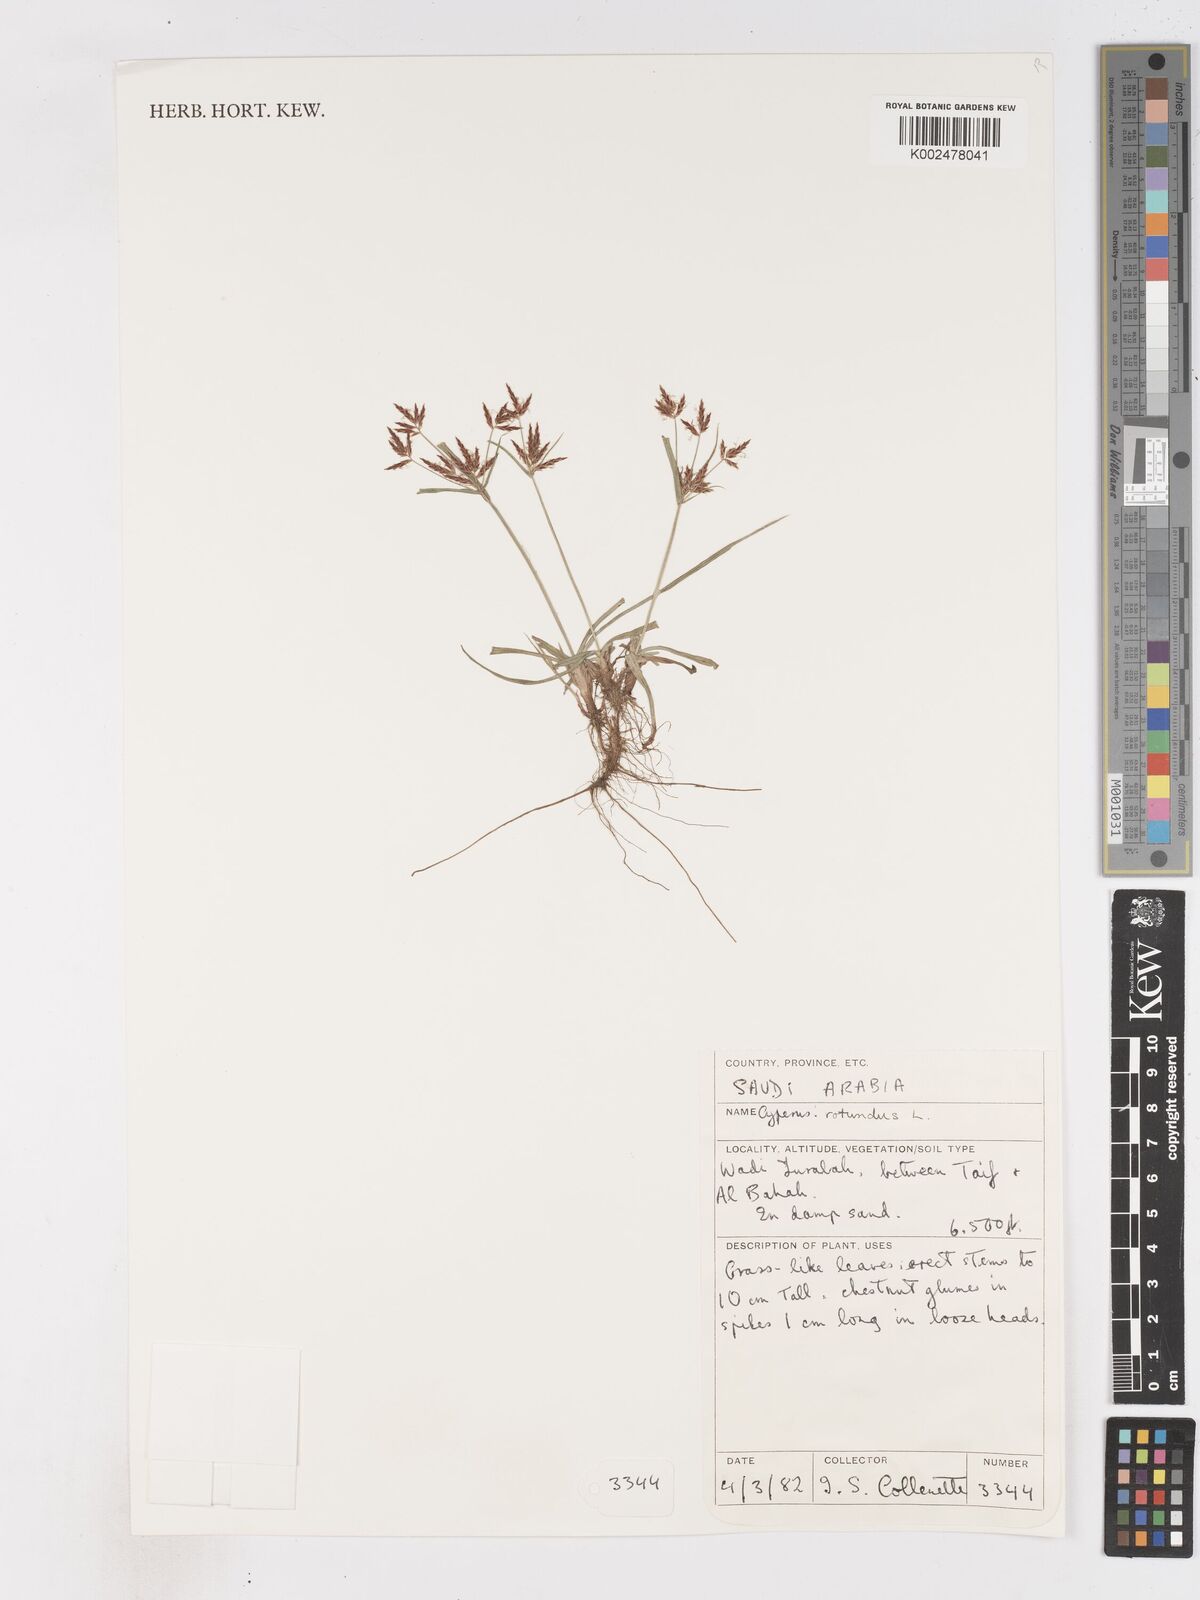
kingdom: Plantae
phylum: Tracheophyta
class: Liliopsida
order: Poales
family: Cyperaceae
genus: Cyperus
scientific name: Cyperus rotundus
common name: Nutgrass
